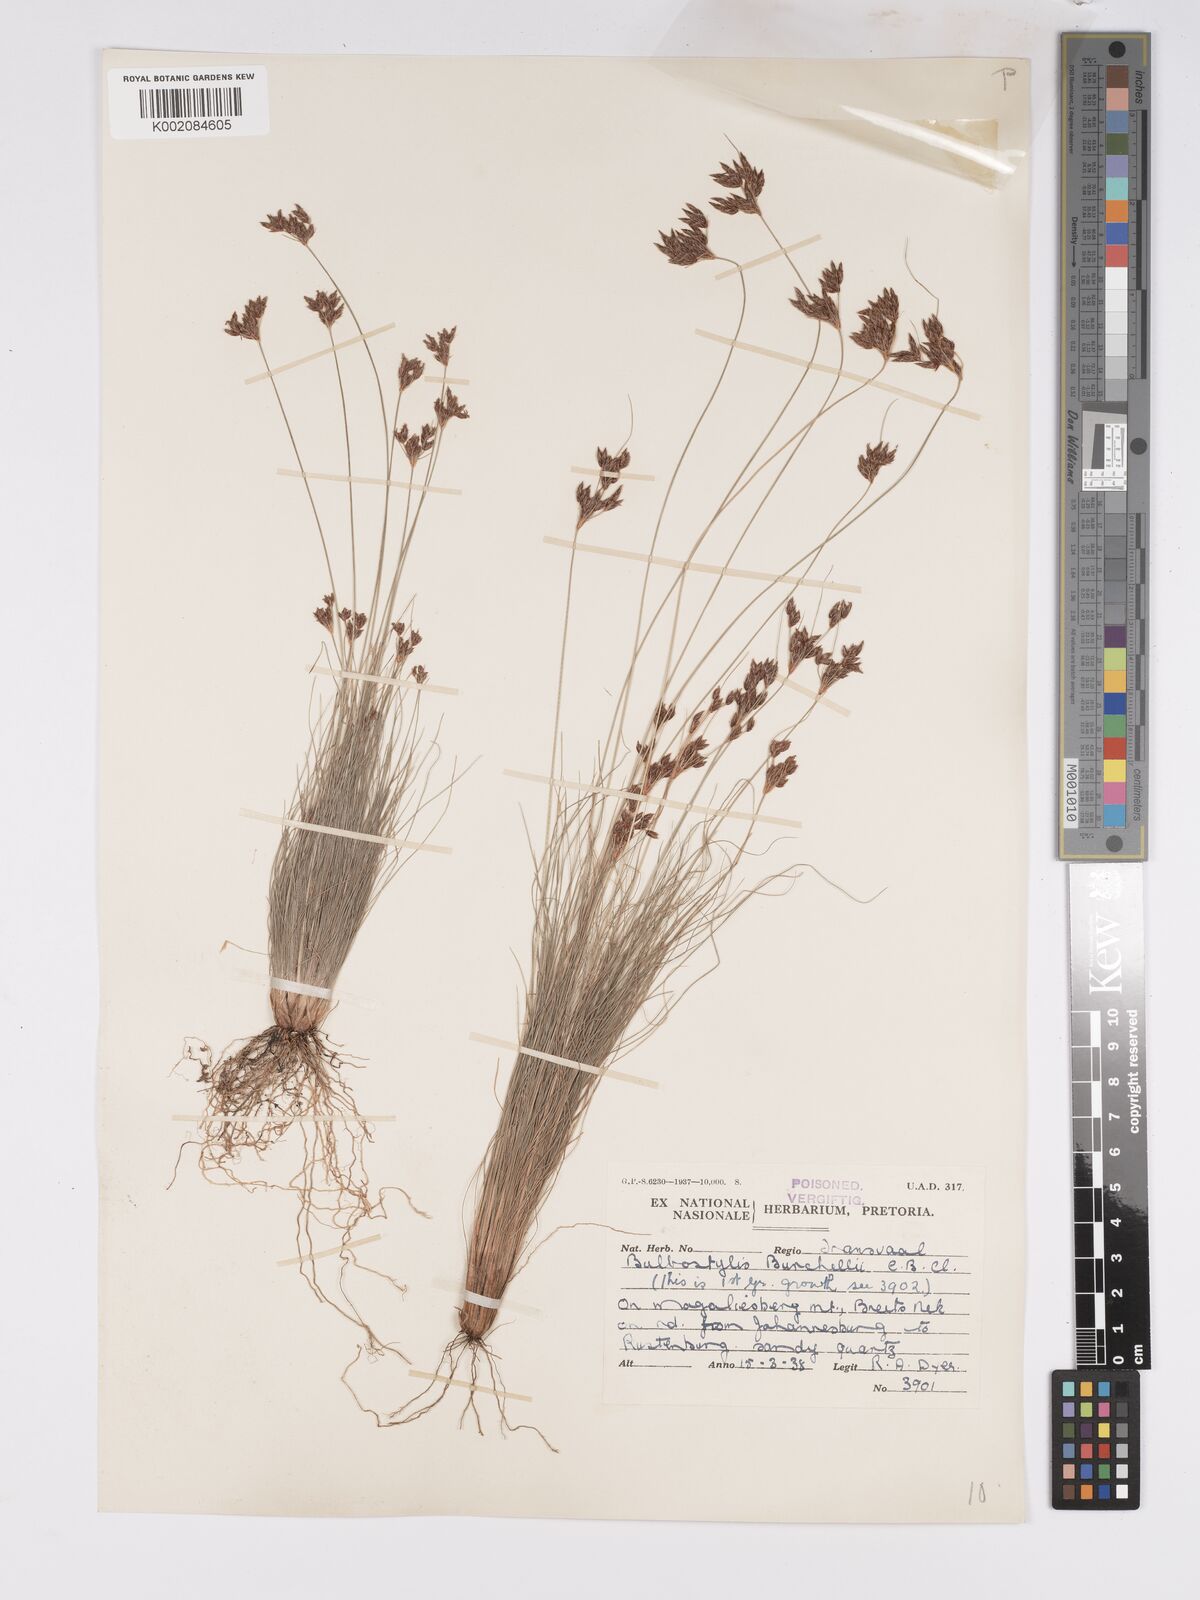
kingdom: Plantae
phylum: Tracheophyta
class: Liliopsida
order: Poales
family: Cyperaceae
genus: Bulbostylis
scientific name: Bulbostylis burchellii
